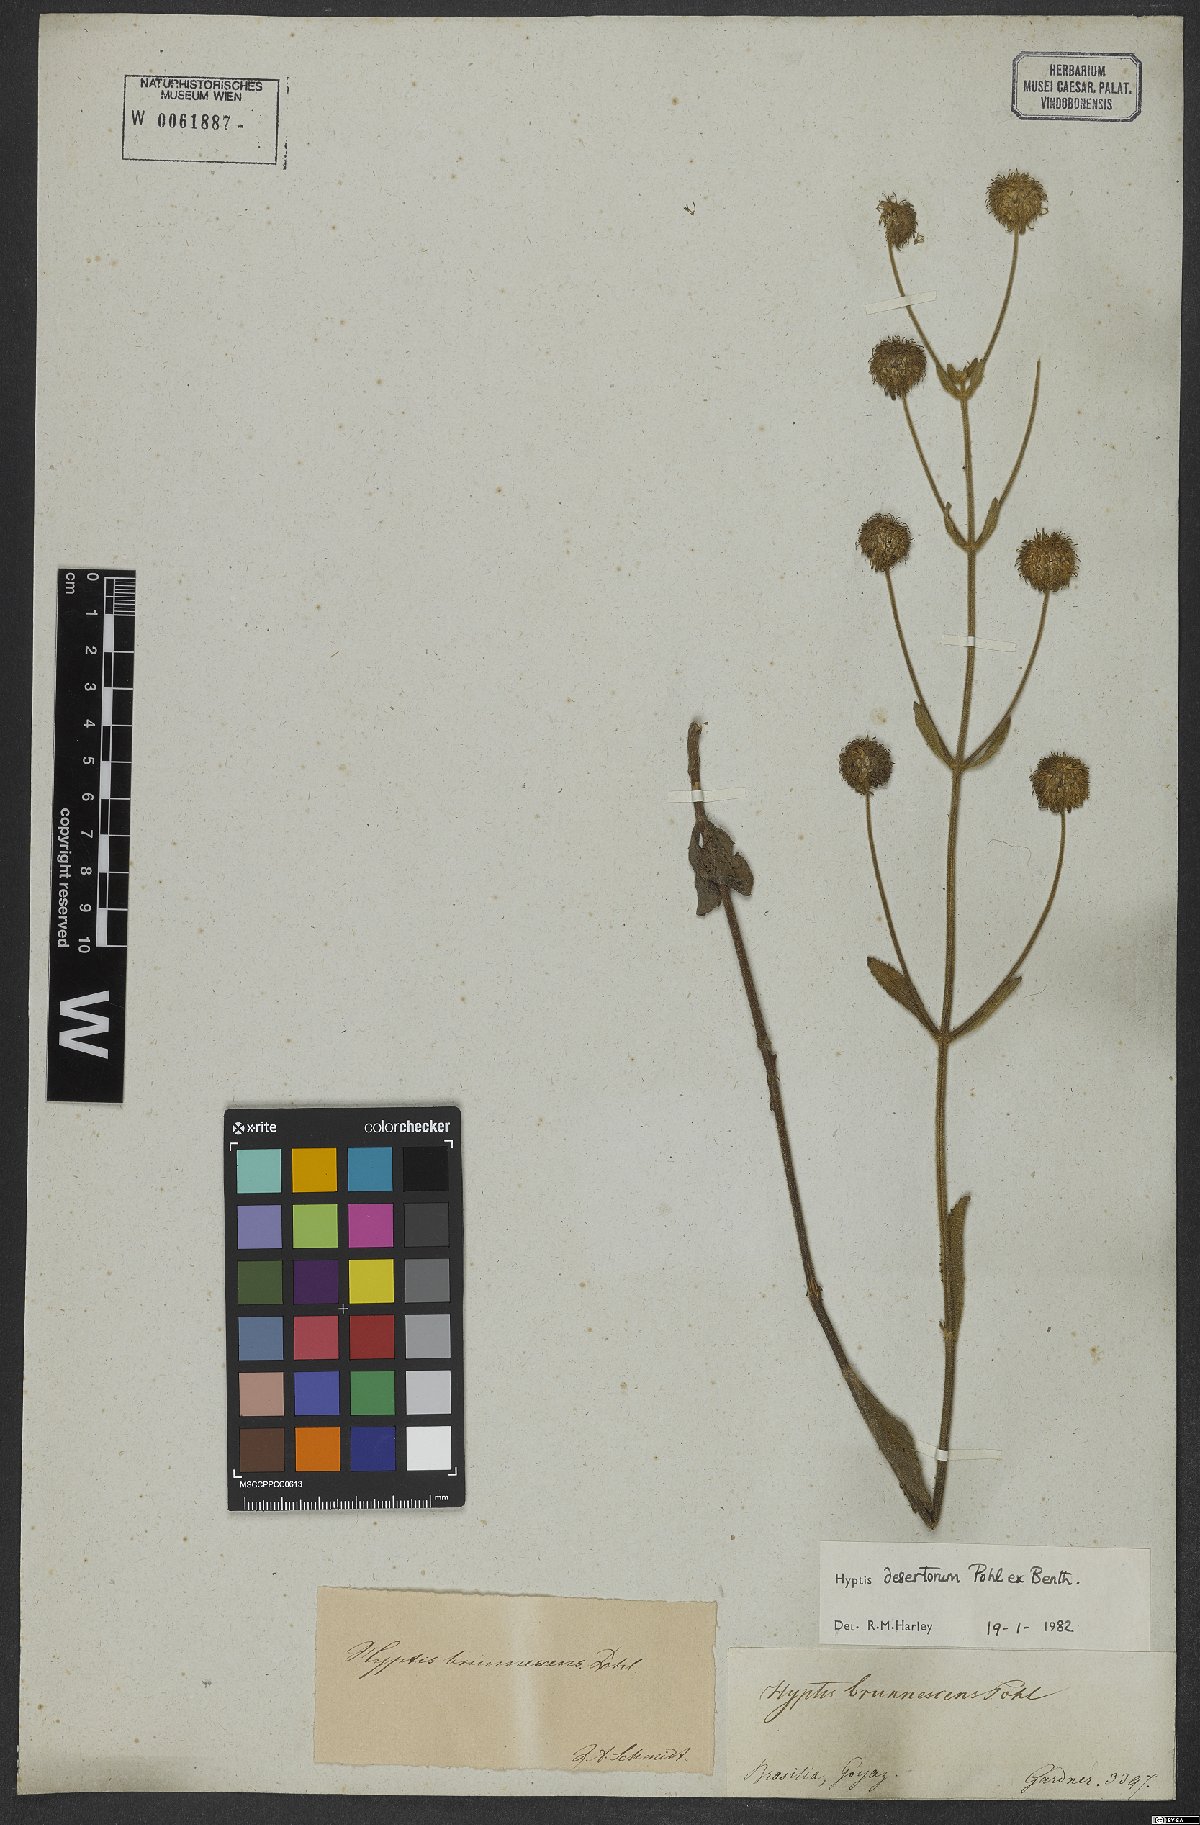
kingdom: Plantae
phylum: Tracheophyta
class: Magnoliopsida
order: Lamiales
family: Lamiaceae
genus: Cyanocephalus
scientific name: Cyanocephalus desertorum
